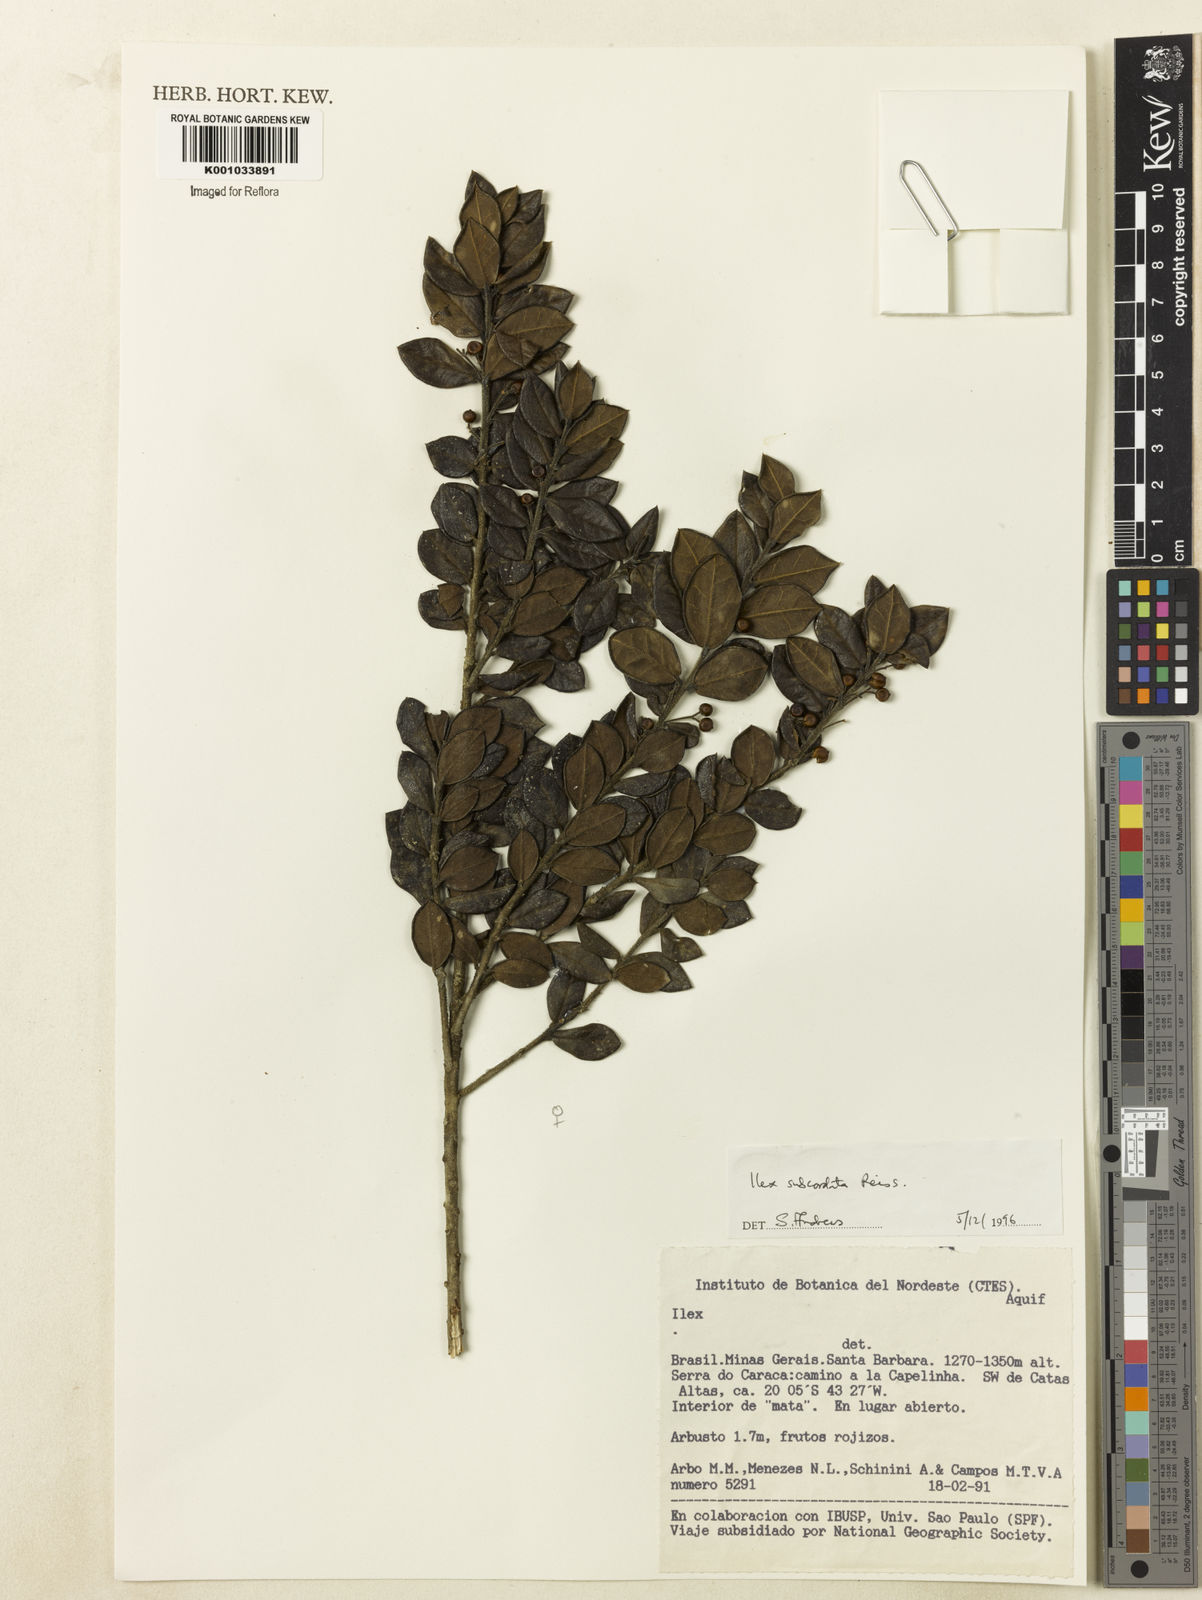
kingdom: Plantae
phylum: Tracheophyta
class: Magnoliopsida
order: Aquifoliales
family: Aquifoliaceae
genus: Ilex
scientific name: Ilex subcordata
